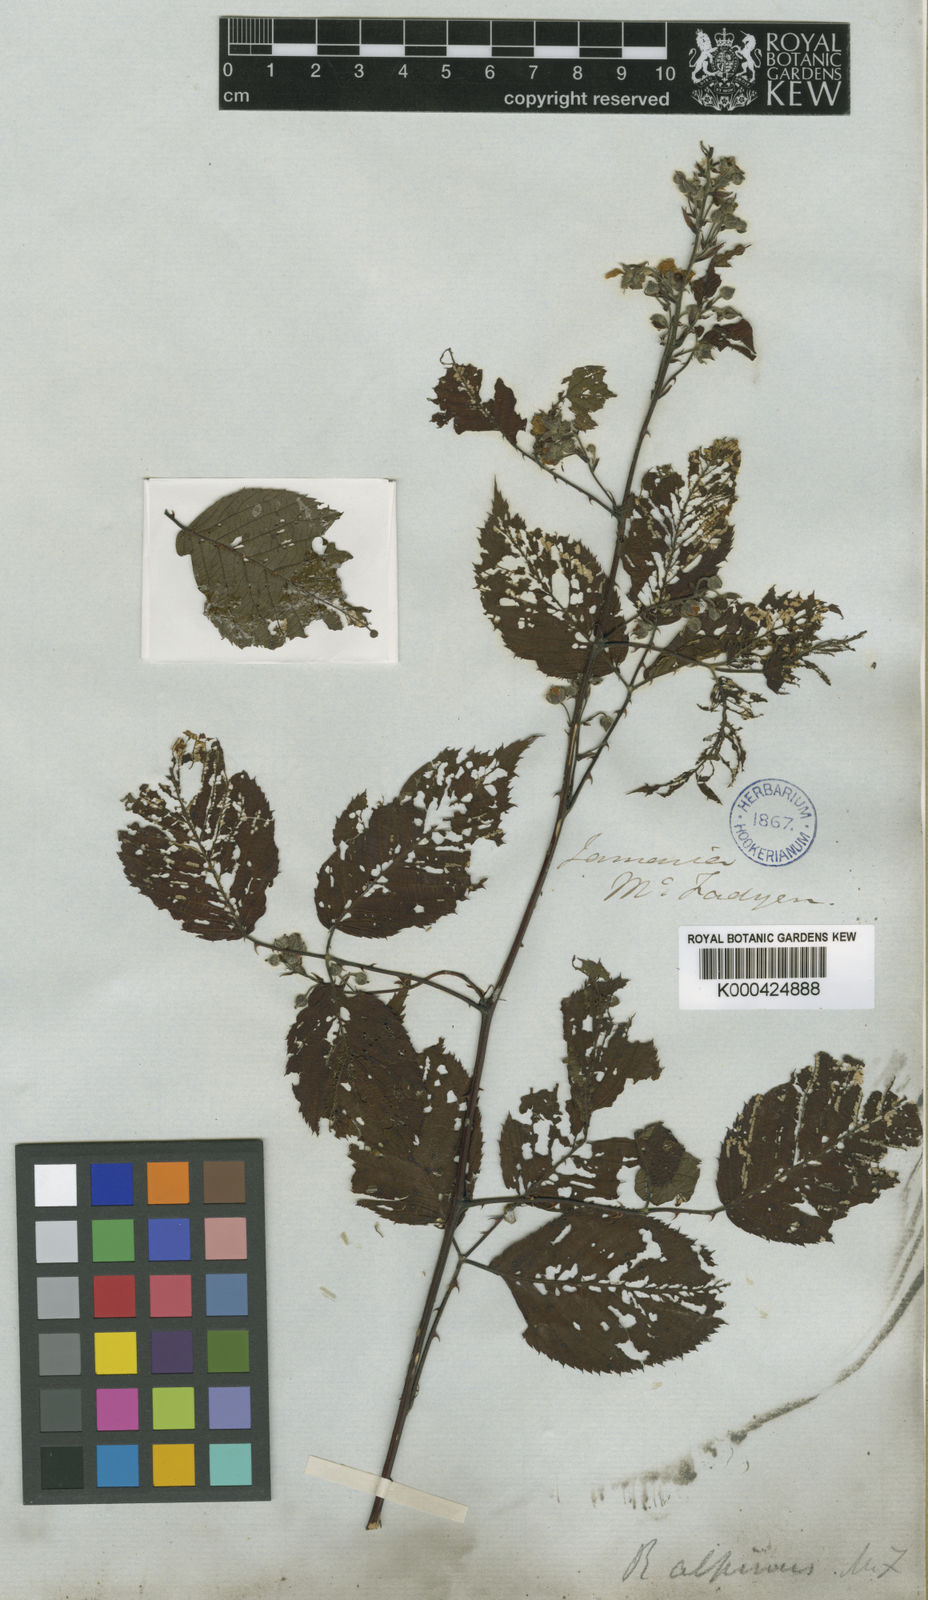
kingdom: Plantae
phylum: Tracheophyta
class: Magnoliopsida
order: Rosales
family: Rosaceae
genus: Rubus
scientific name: Rubus alpinus
